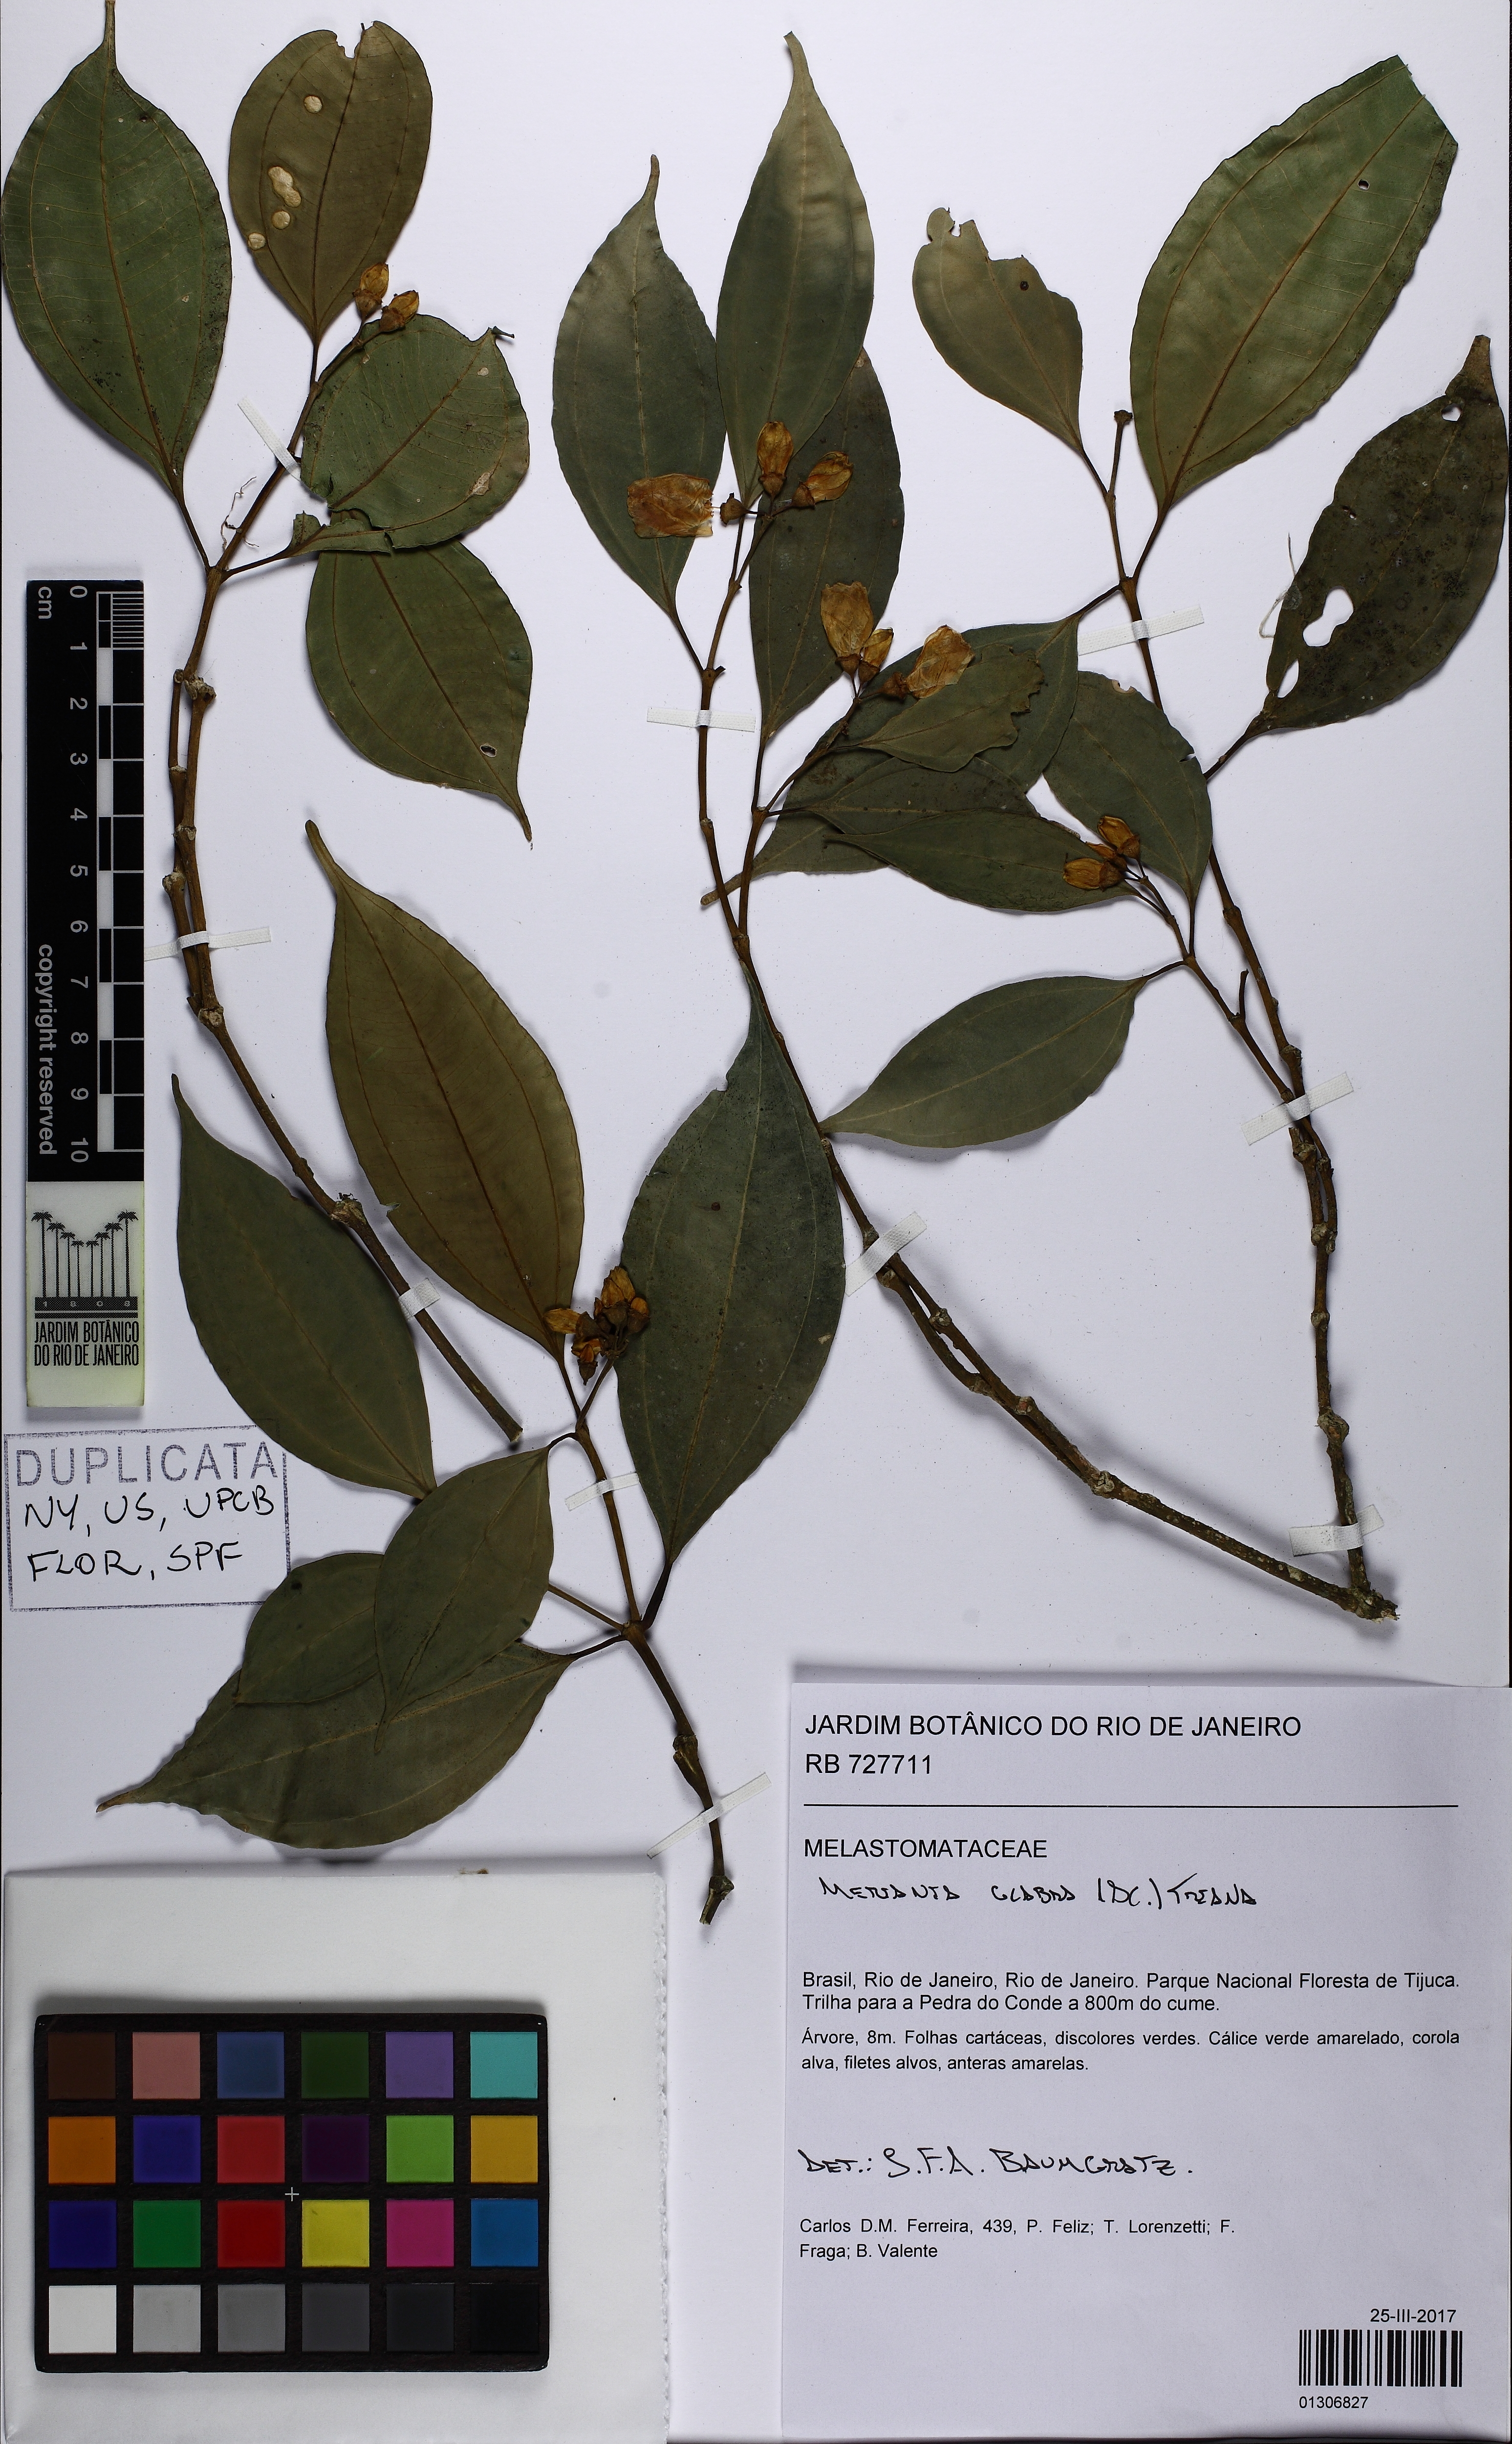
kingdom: Plantae
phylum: Tracheophyta
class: Magnoliopsida
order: Myrtales
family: Melastomataceae
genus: Meriania
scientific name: Meriania glabra
